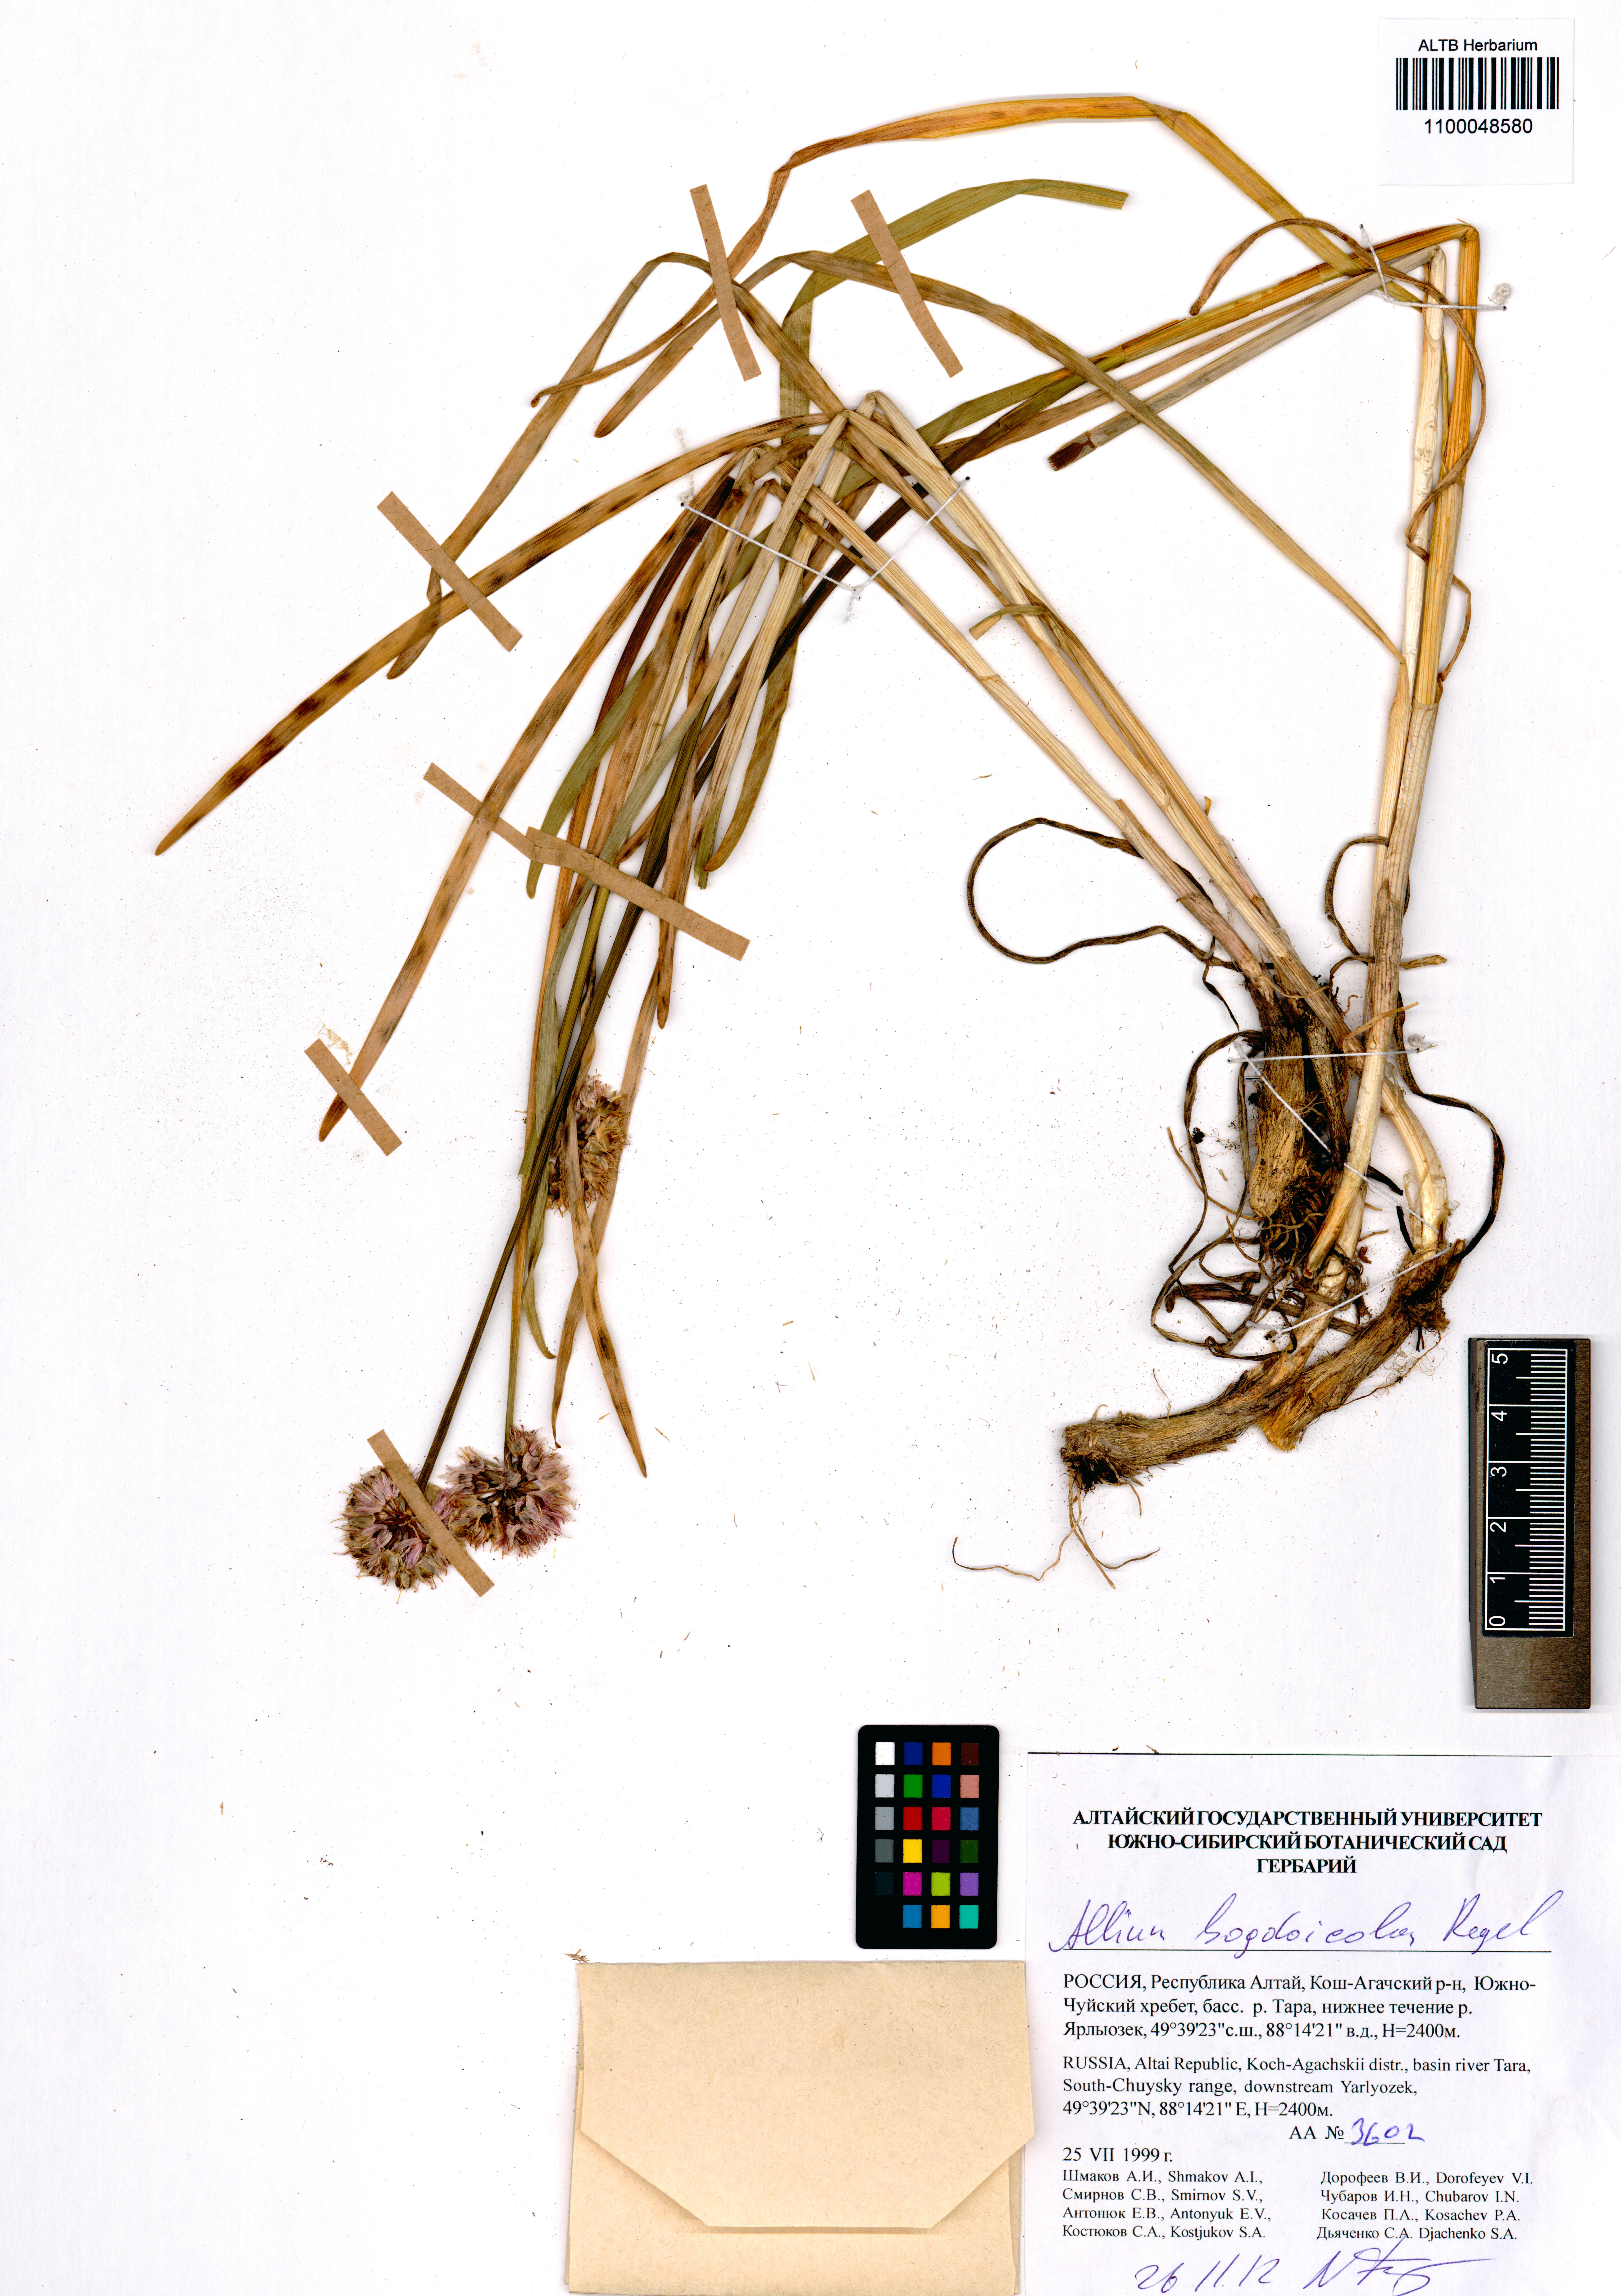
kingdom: Plantae
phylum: Tracheophyta
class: Liliopsida
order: Asparagales
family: Amaryllidaceae
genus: Allium
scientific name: Allium schrenkii
